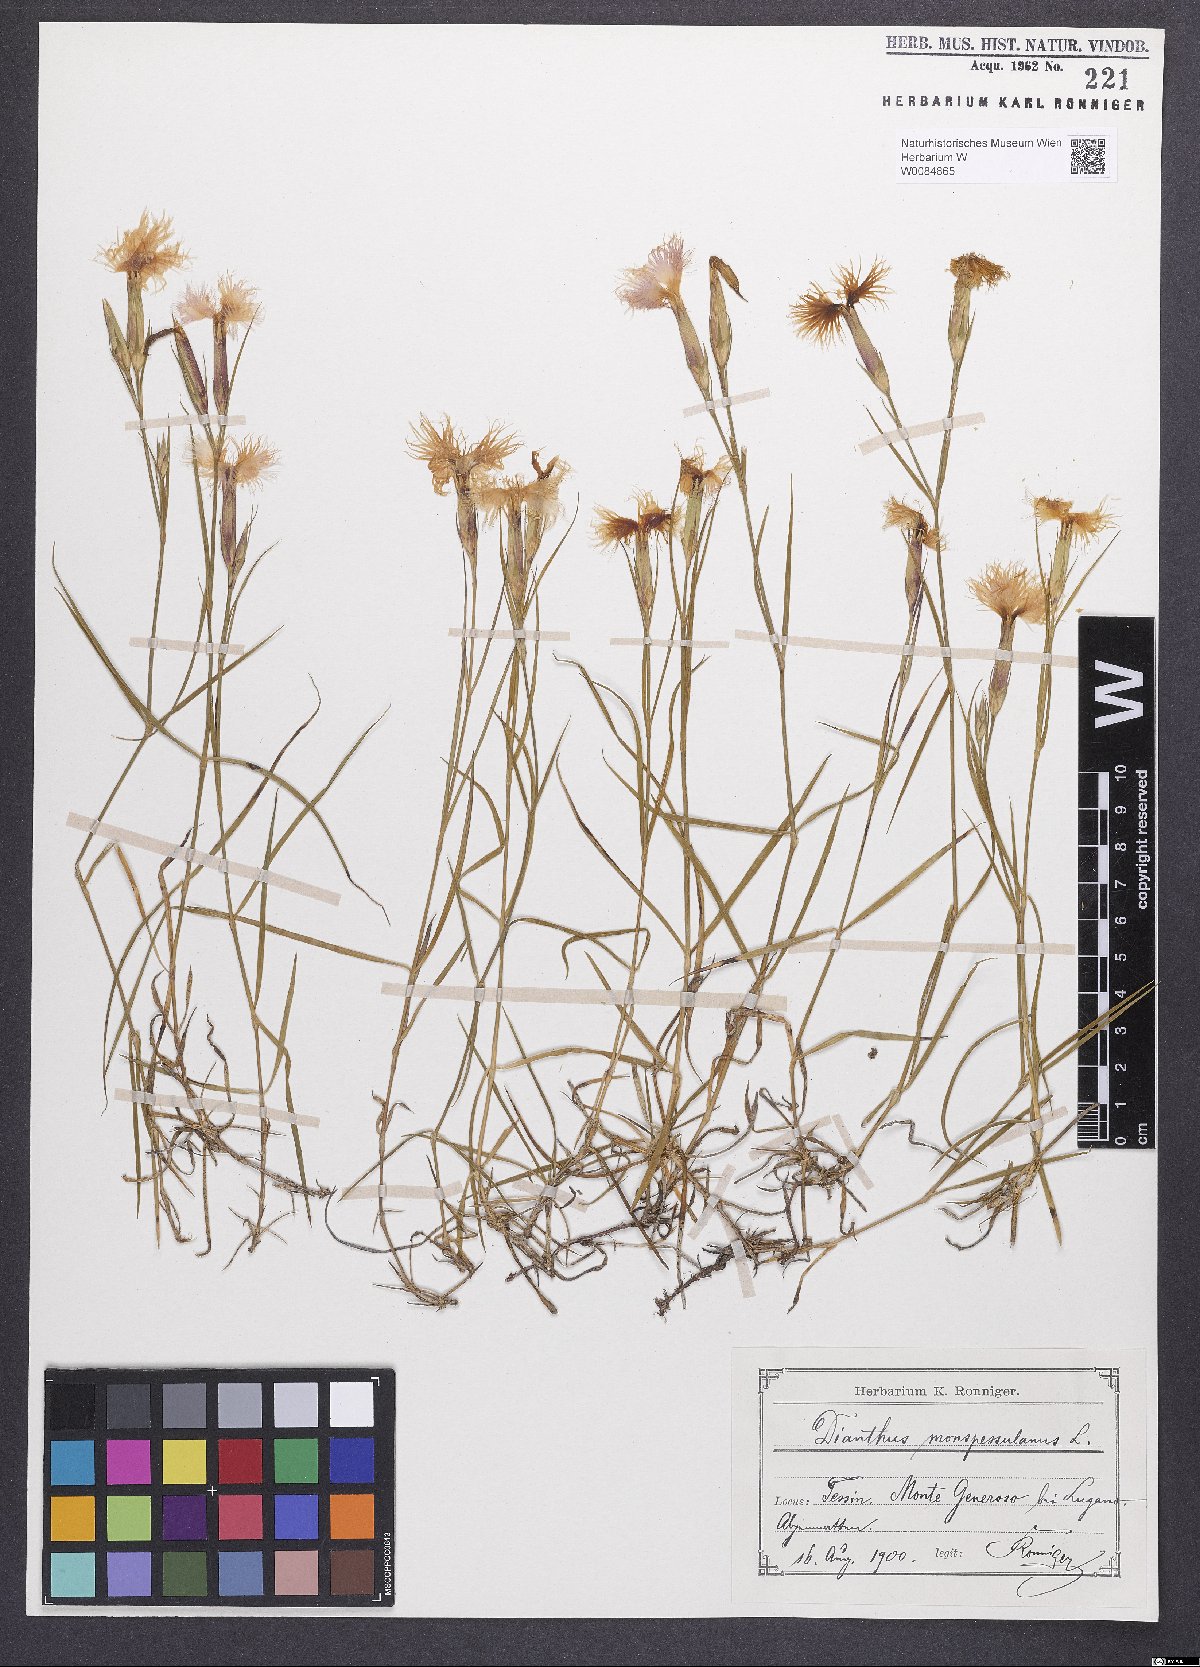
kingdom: Plantae
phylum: Tracheophyta
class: Magnoliopsida
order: Caryophyllales
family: Caryophyllaceae
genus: Dianthus
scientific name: Dianthus hyssopifolius
